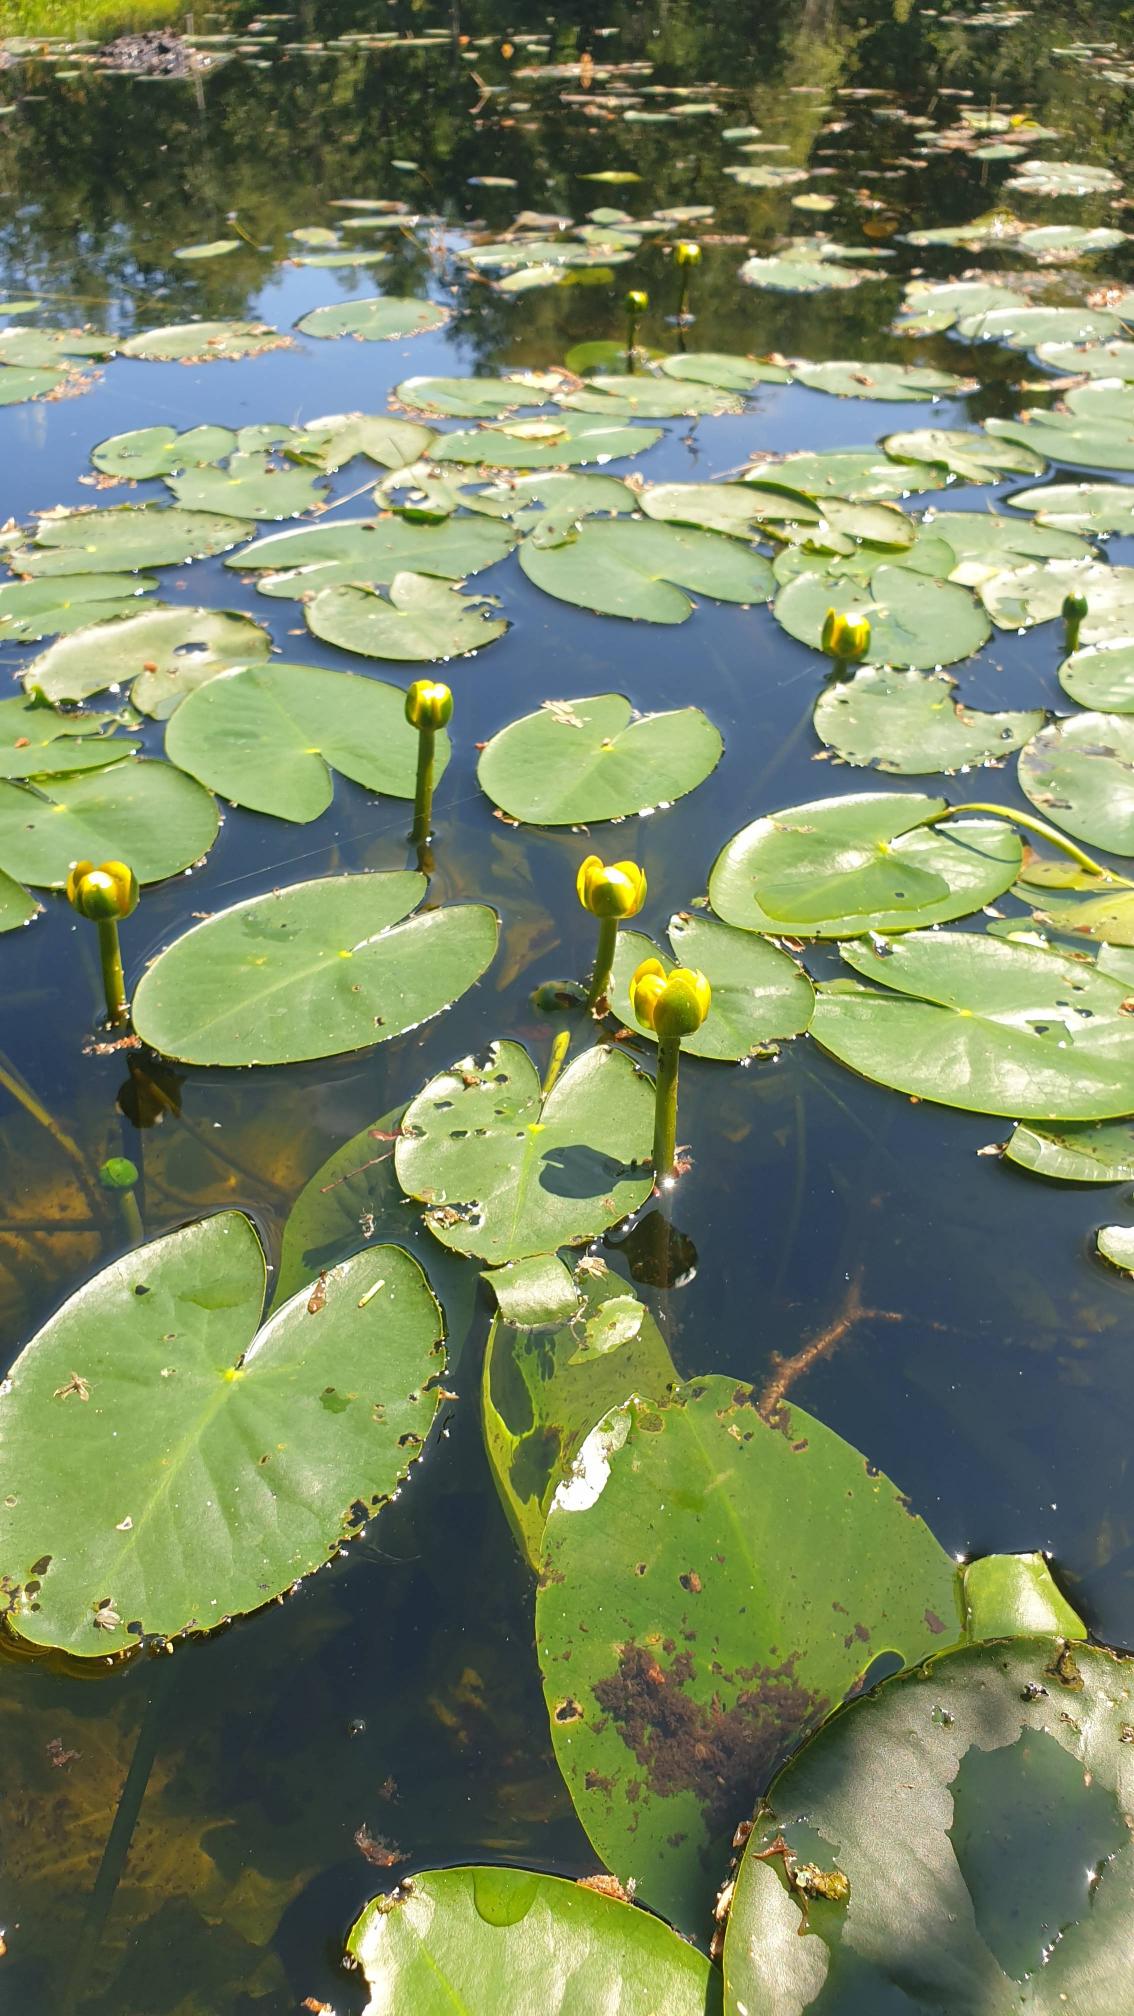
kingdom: Plantae
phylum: Tracheophyta
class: Magnoliopsida
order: Nymphaeales
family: Nymphaeaceae
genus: Nuphar
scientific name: Nuphar pumila
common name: Liden åkande
